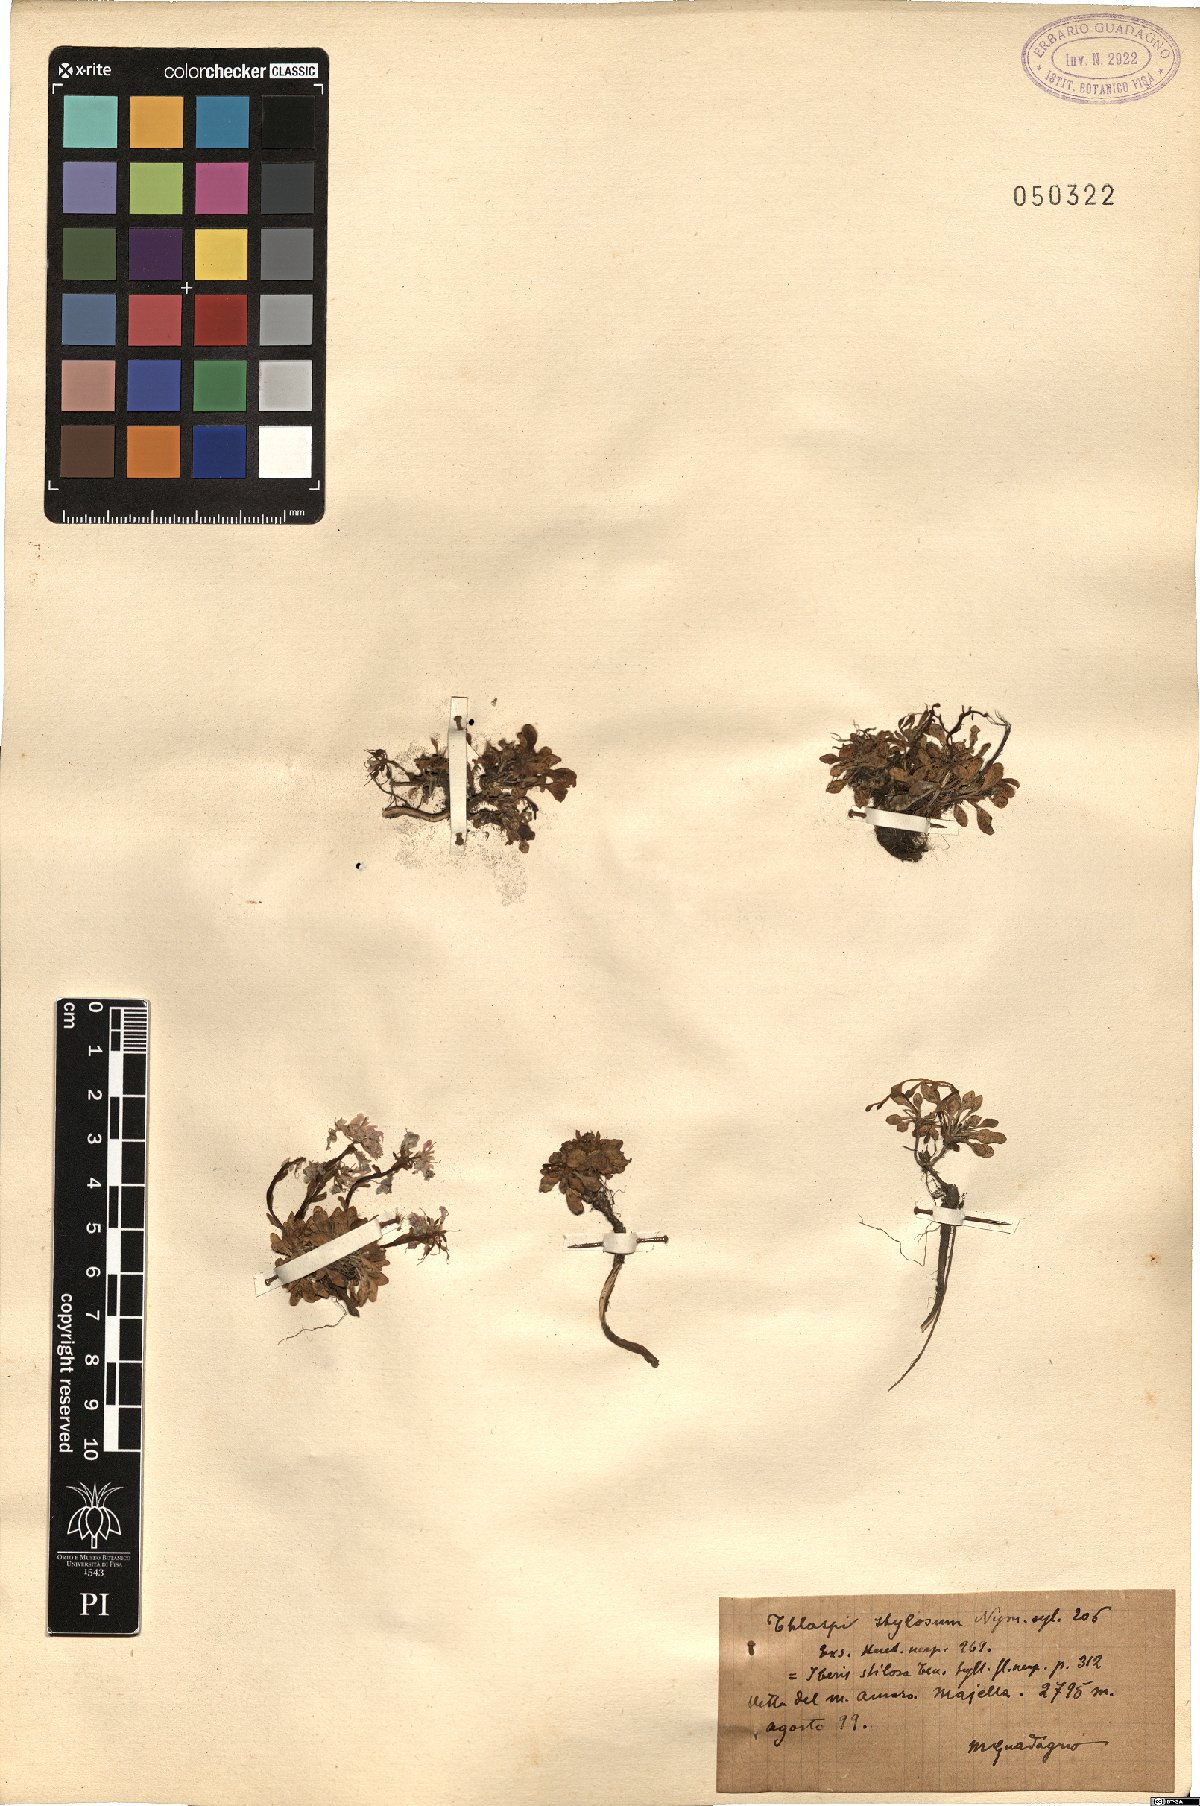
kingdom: Plantae
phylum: Tracheophyta
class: Magnoliopsida
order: Brassicales
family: Brassicaceae
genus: Noccaea
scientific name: Noccaea stilosa
